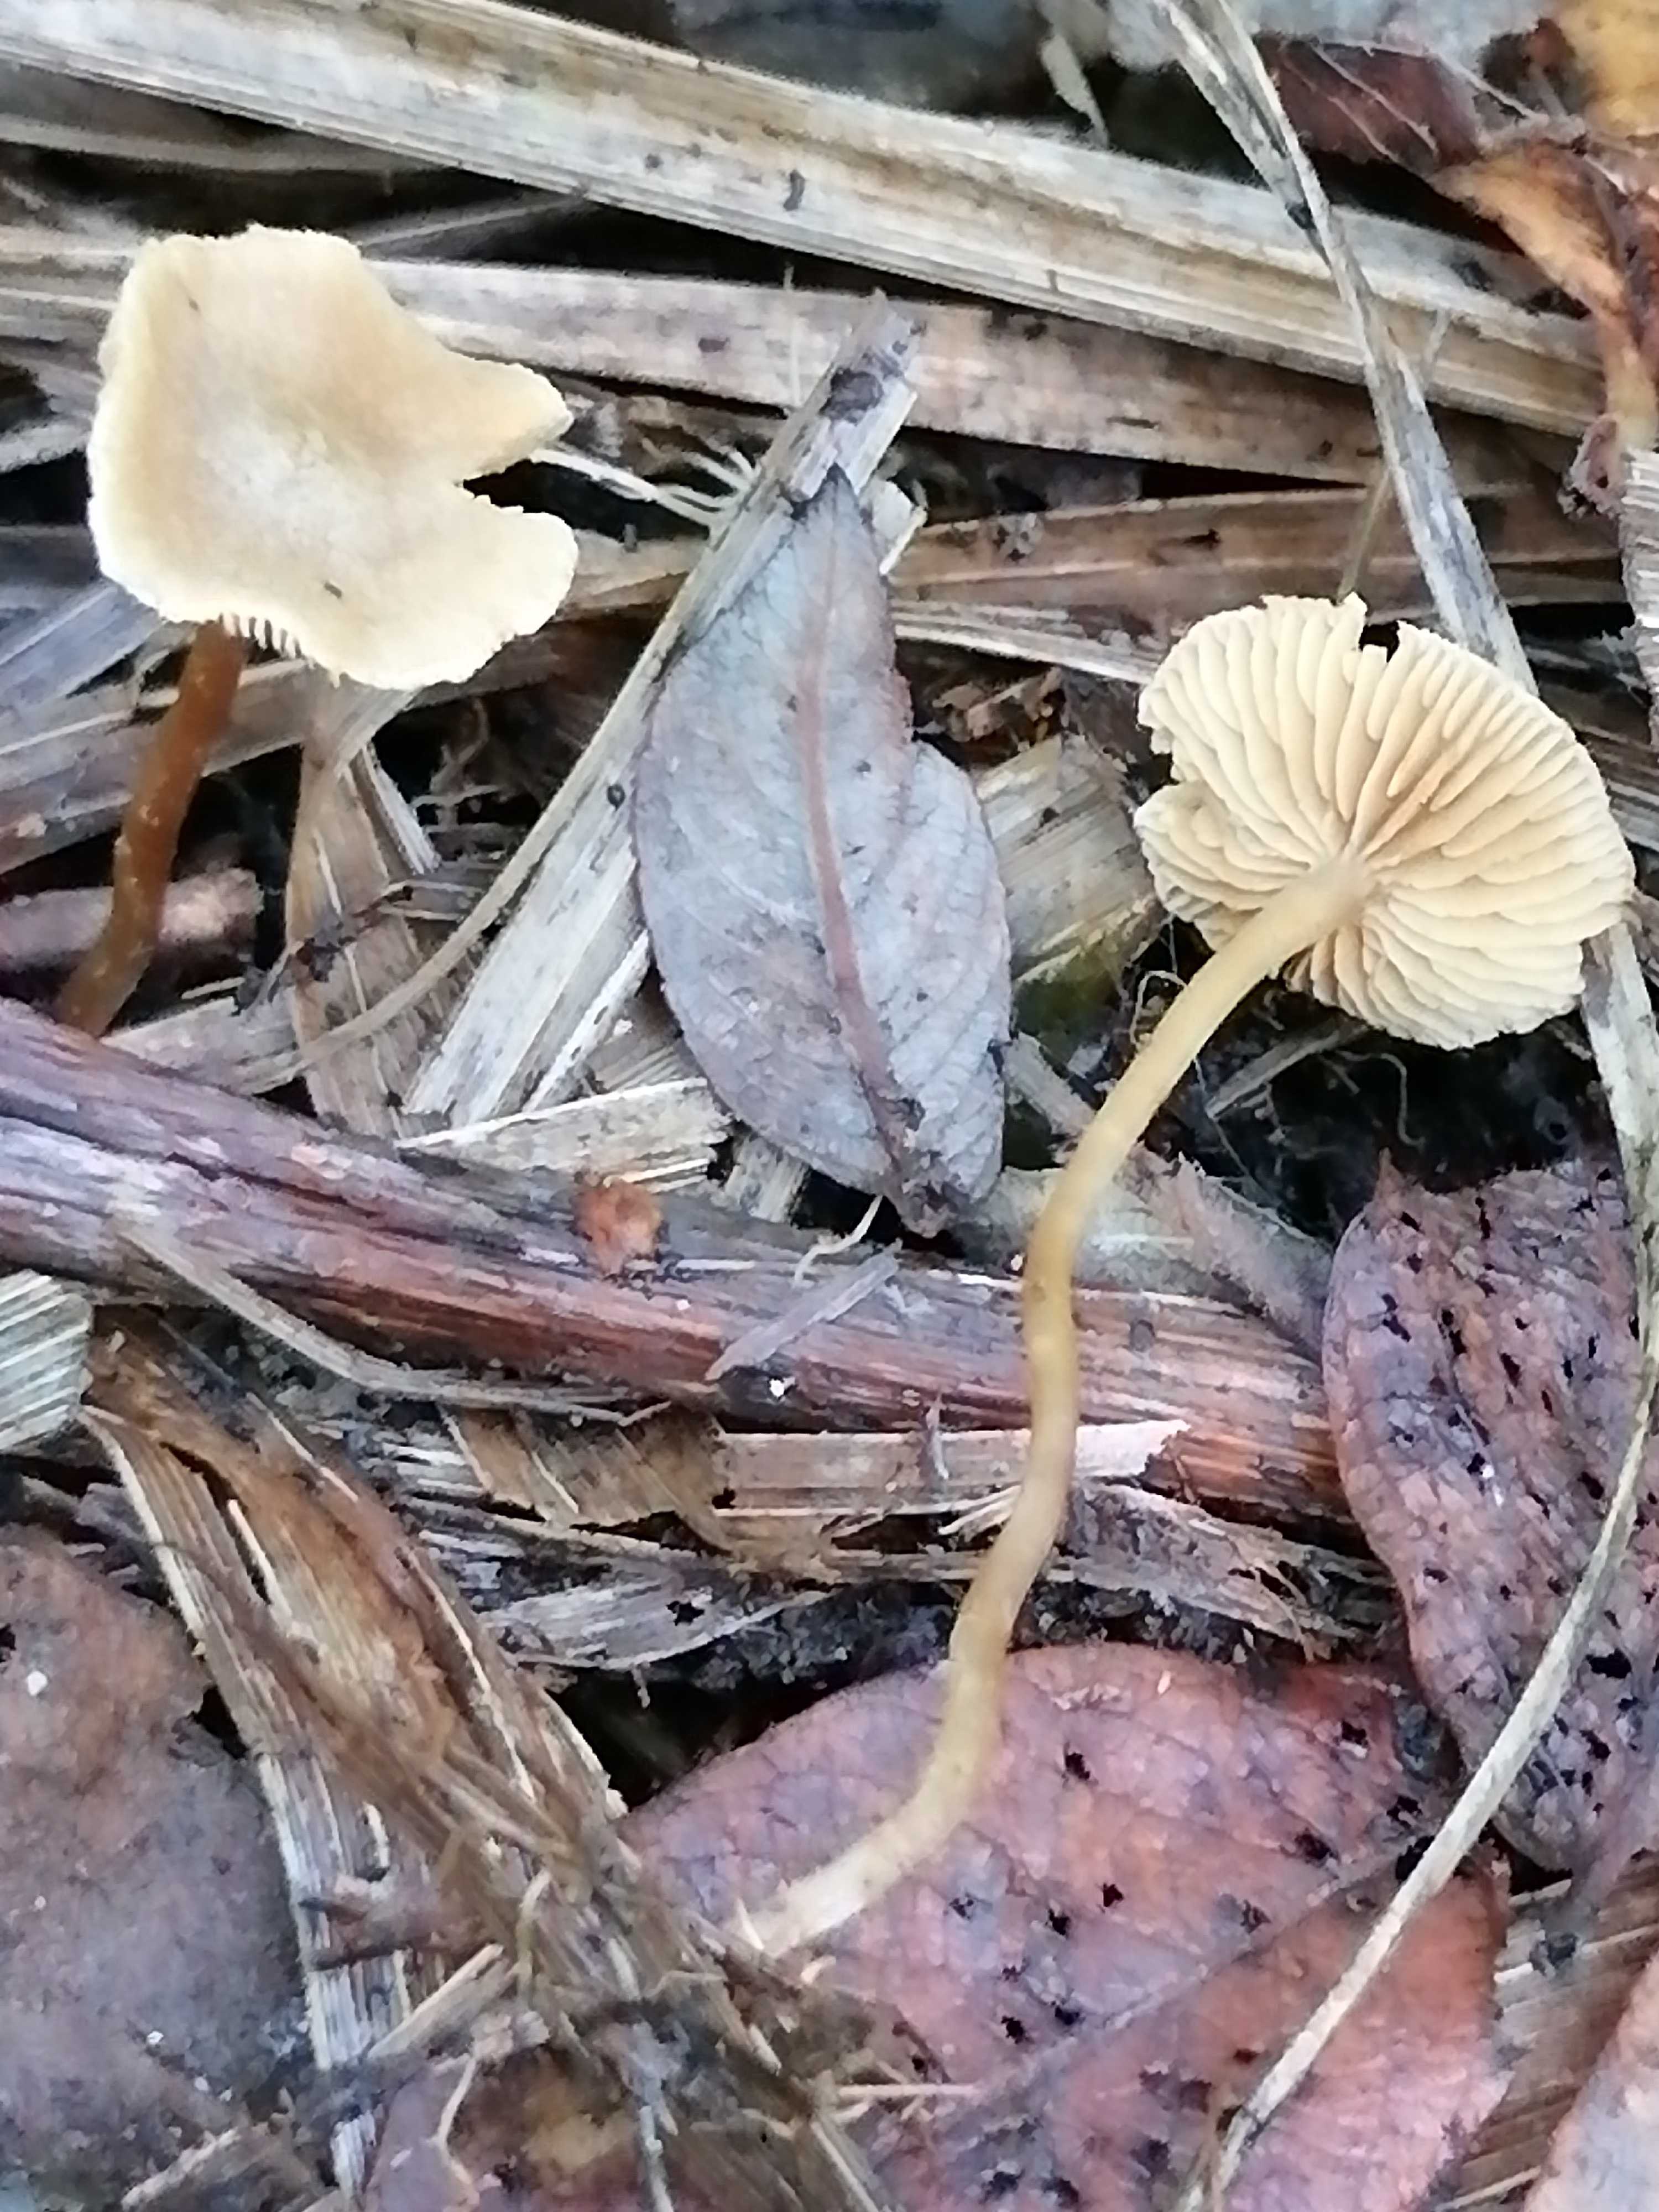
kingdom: Fungi
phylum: Basidiomycota
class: Agaricomycetes
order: Agaricales
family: Strophariaceae
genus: Hypholoma
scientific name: Hypholoma elongatum
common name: slank svovlhat
